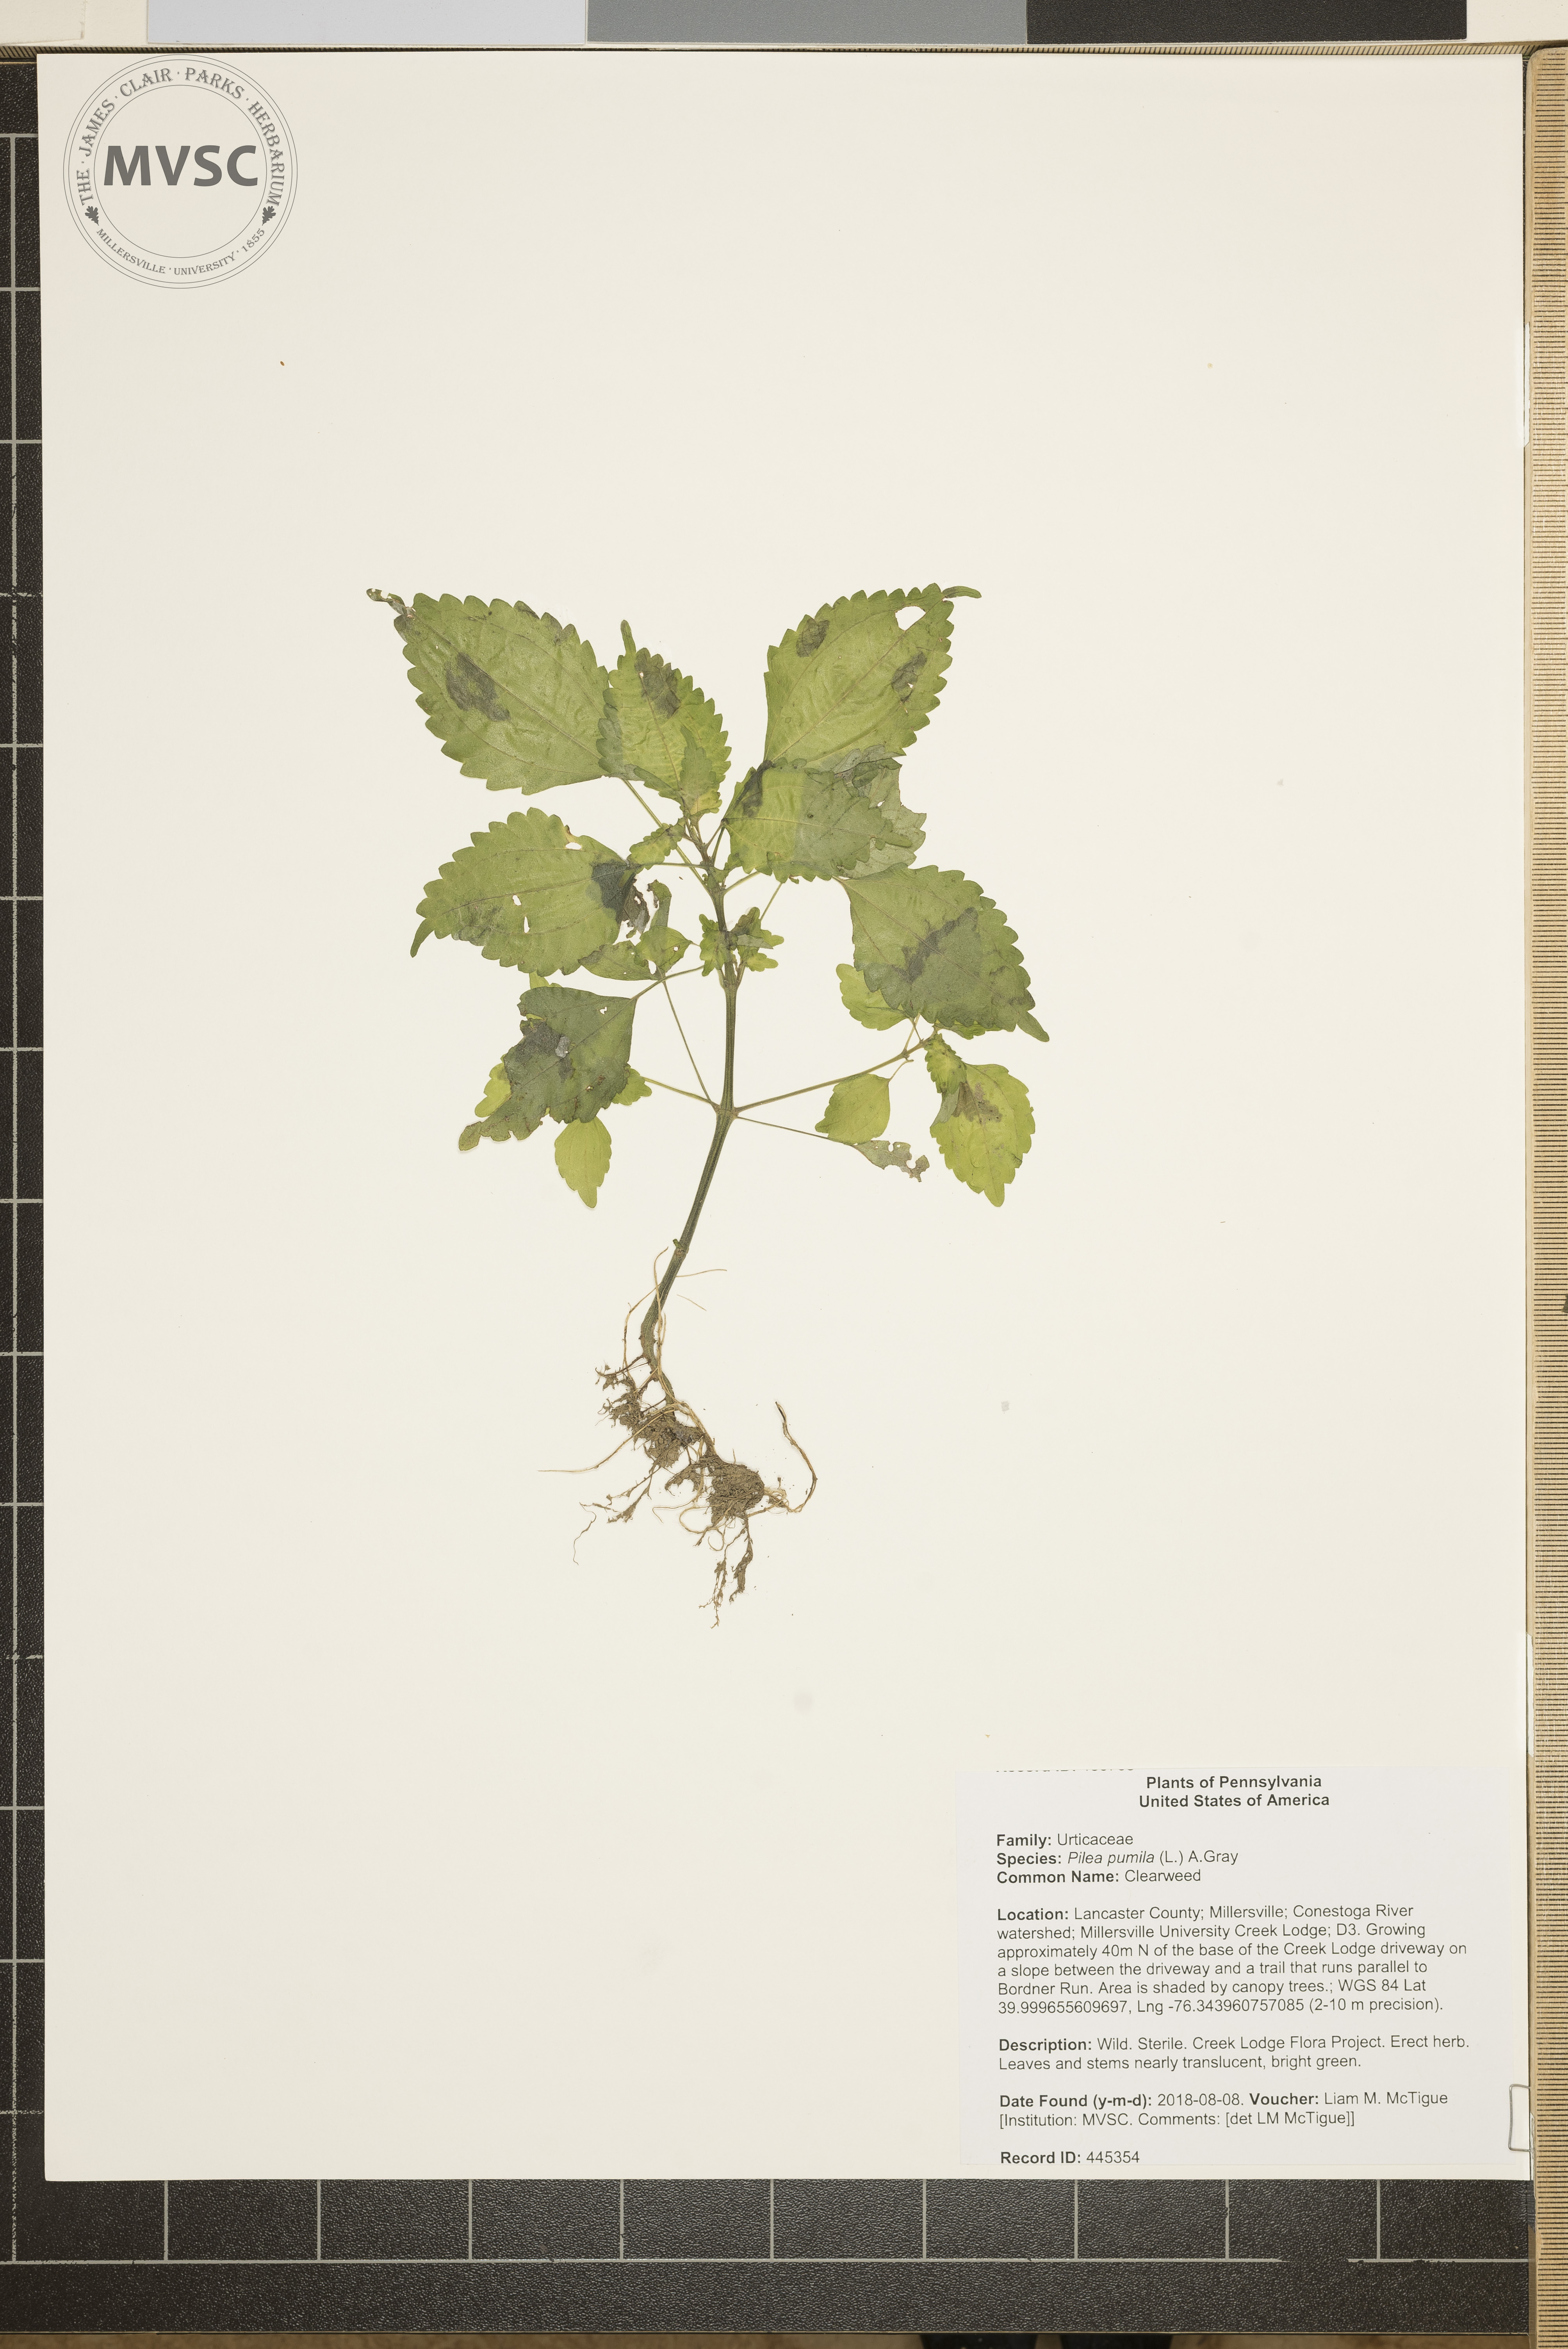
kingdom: Plantae
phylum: Tracheophyta
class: Magnoliopsida
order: Rosales
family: Urticaceae
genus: Pilea
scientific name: Pilea pumila
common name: Clearweed
